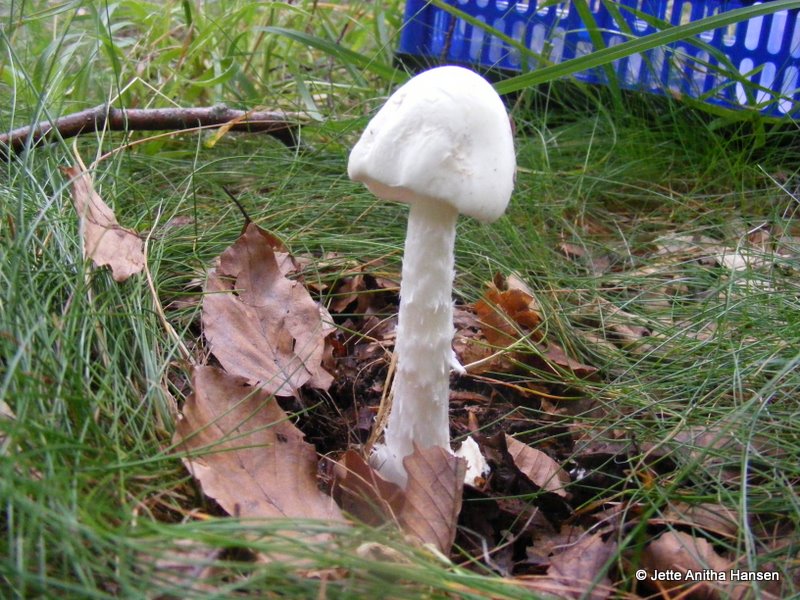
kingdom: Fungi
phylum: Basidiomycota
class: Agaricomycetes
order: Agaricales
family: Amanitaceae
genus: Amanita
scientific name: Amanita virosa
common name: snehvid fluesvamp
